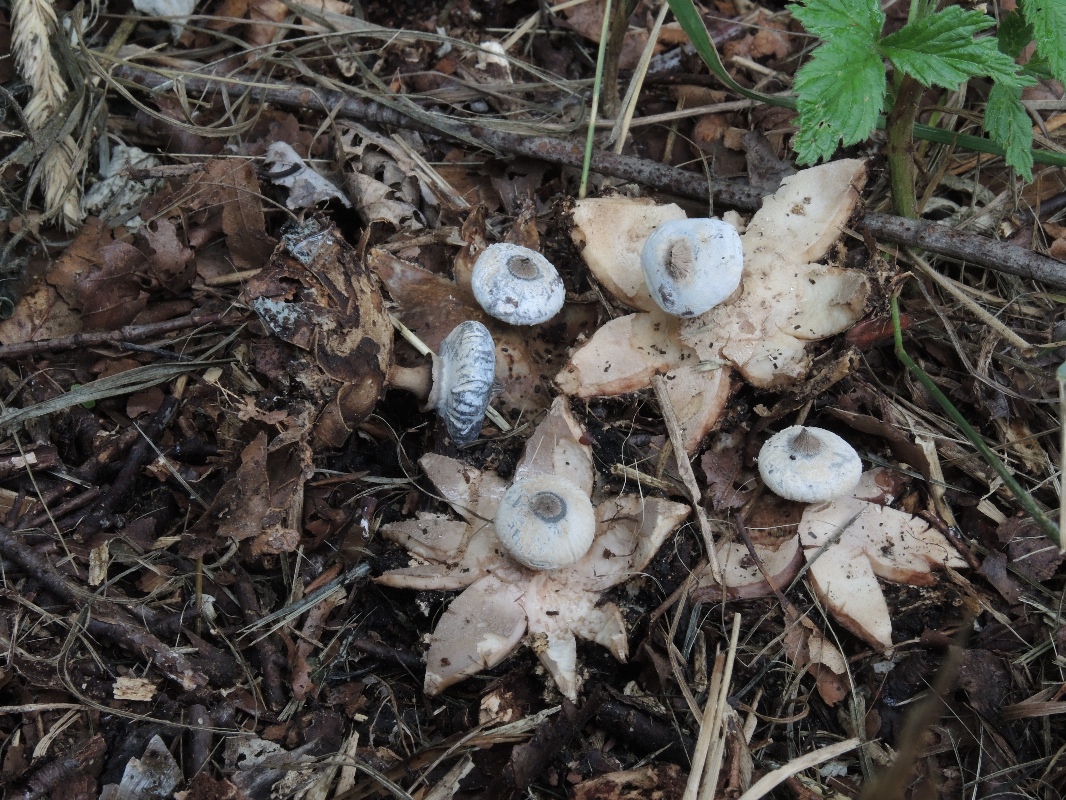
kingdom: Fungi
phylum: Basidiomycota
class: Agaricomycetes
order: Geastrales
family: Geastraceae
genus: Geastrum
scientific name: Geastrum striatum
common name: krave-stjernebold
